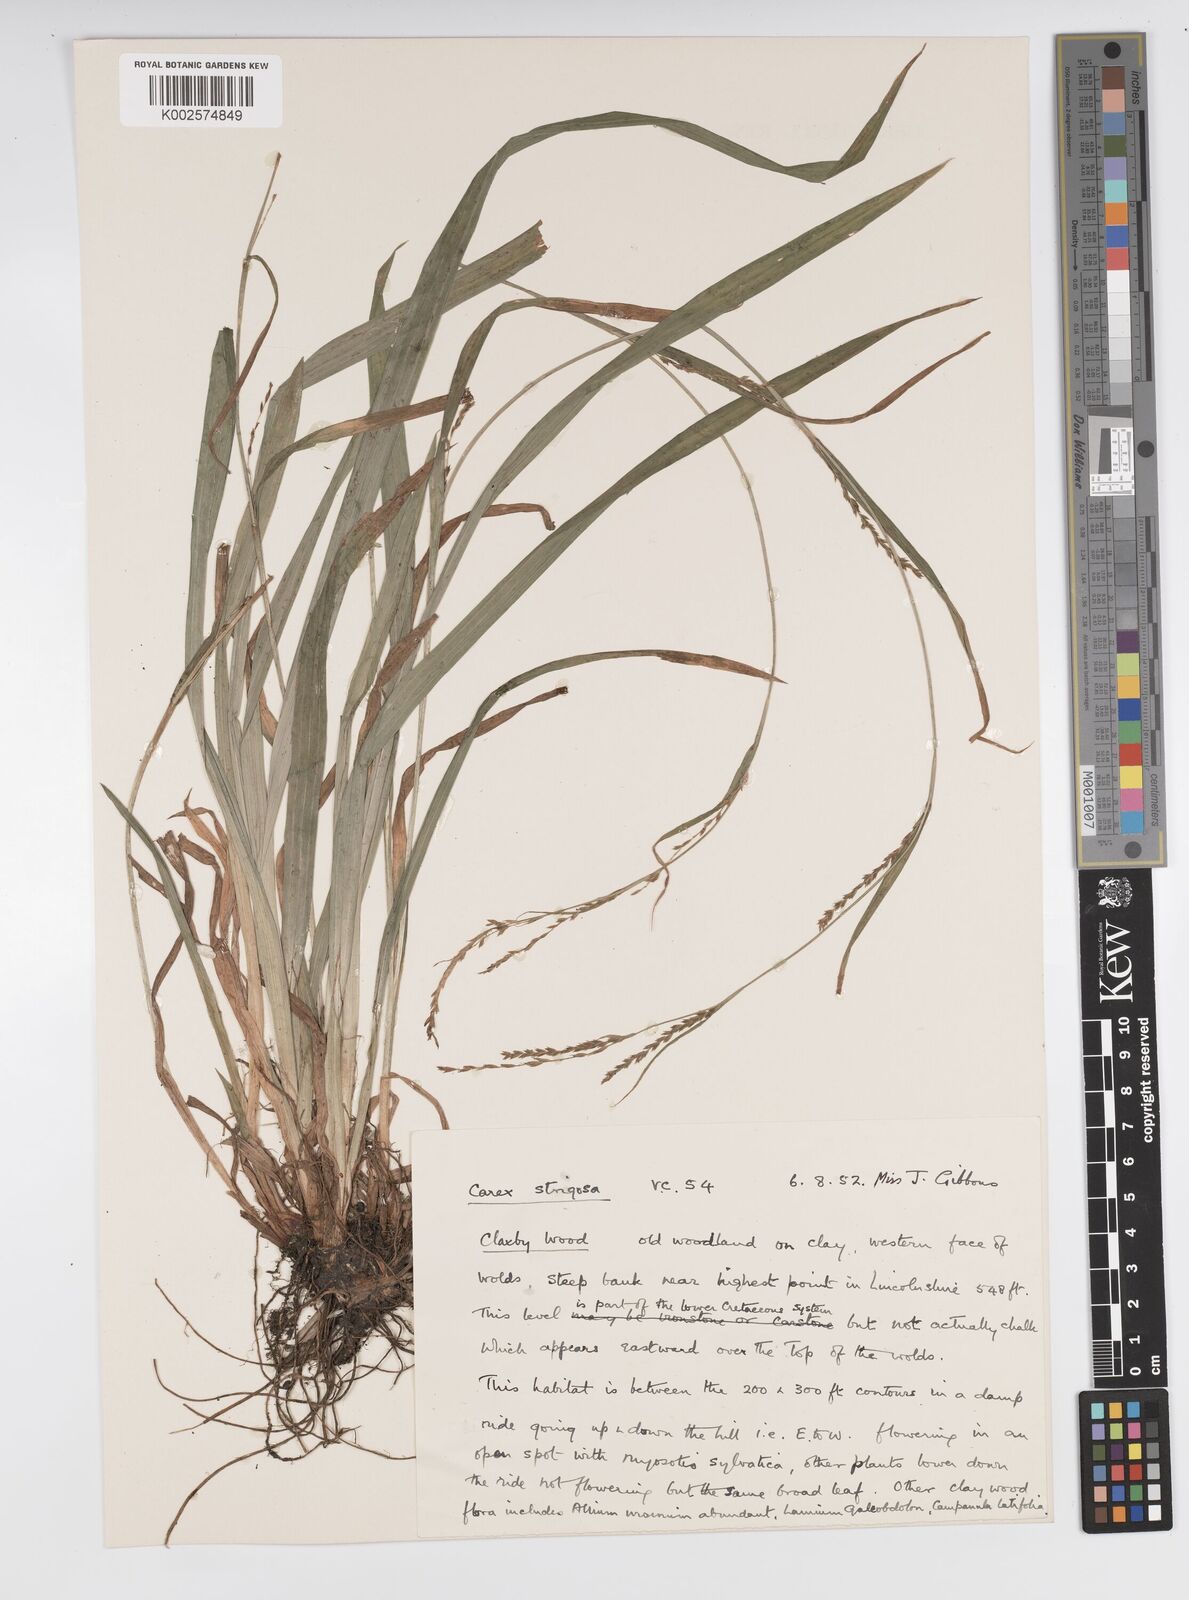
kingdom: Plantae
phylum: Tracheophyta
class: Liliopsida
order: Poales
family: Cyperaceae
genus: Carex
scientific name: Carex strigosa
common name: Thin-spiked wood-sedge
